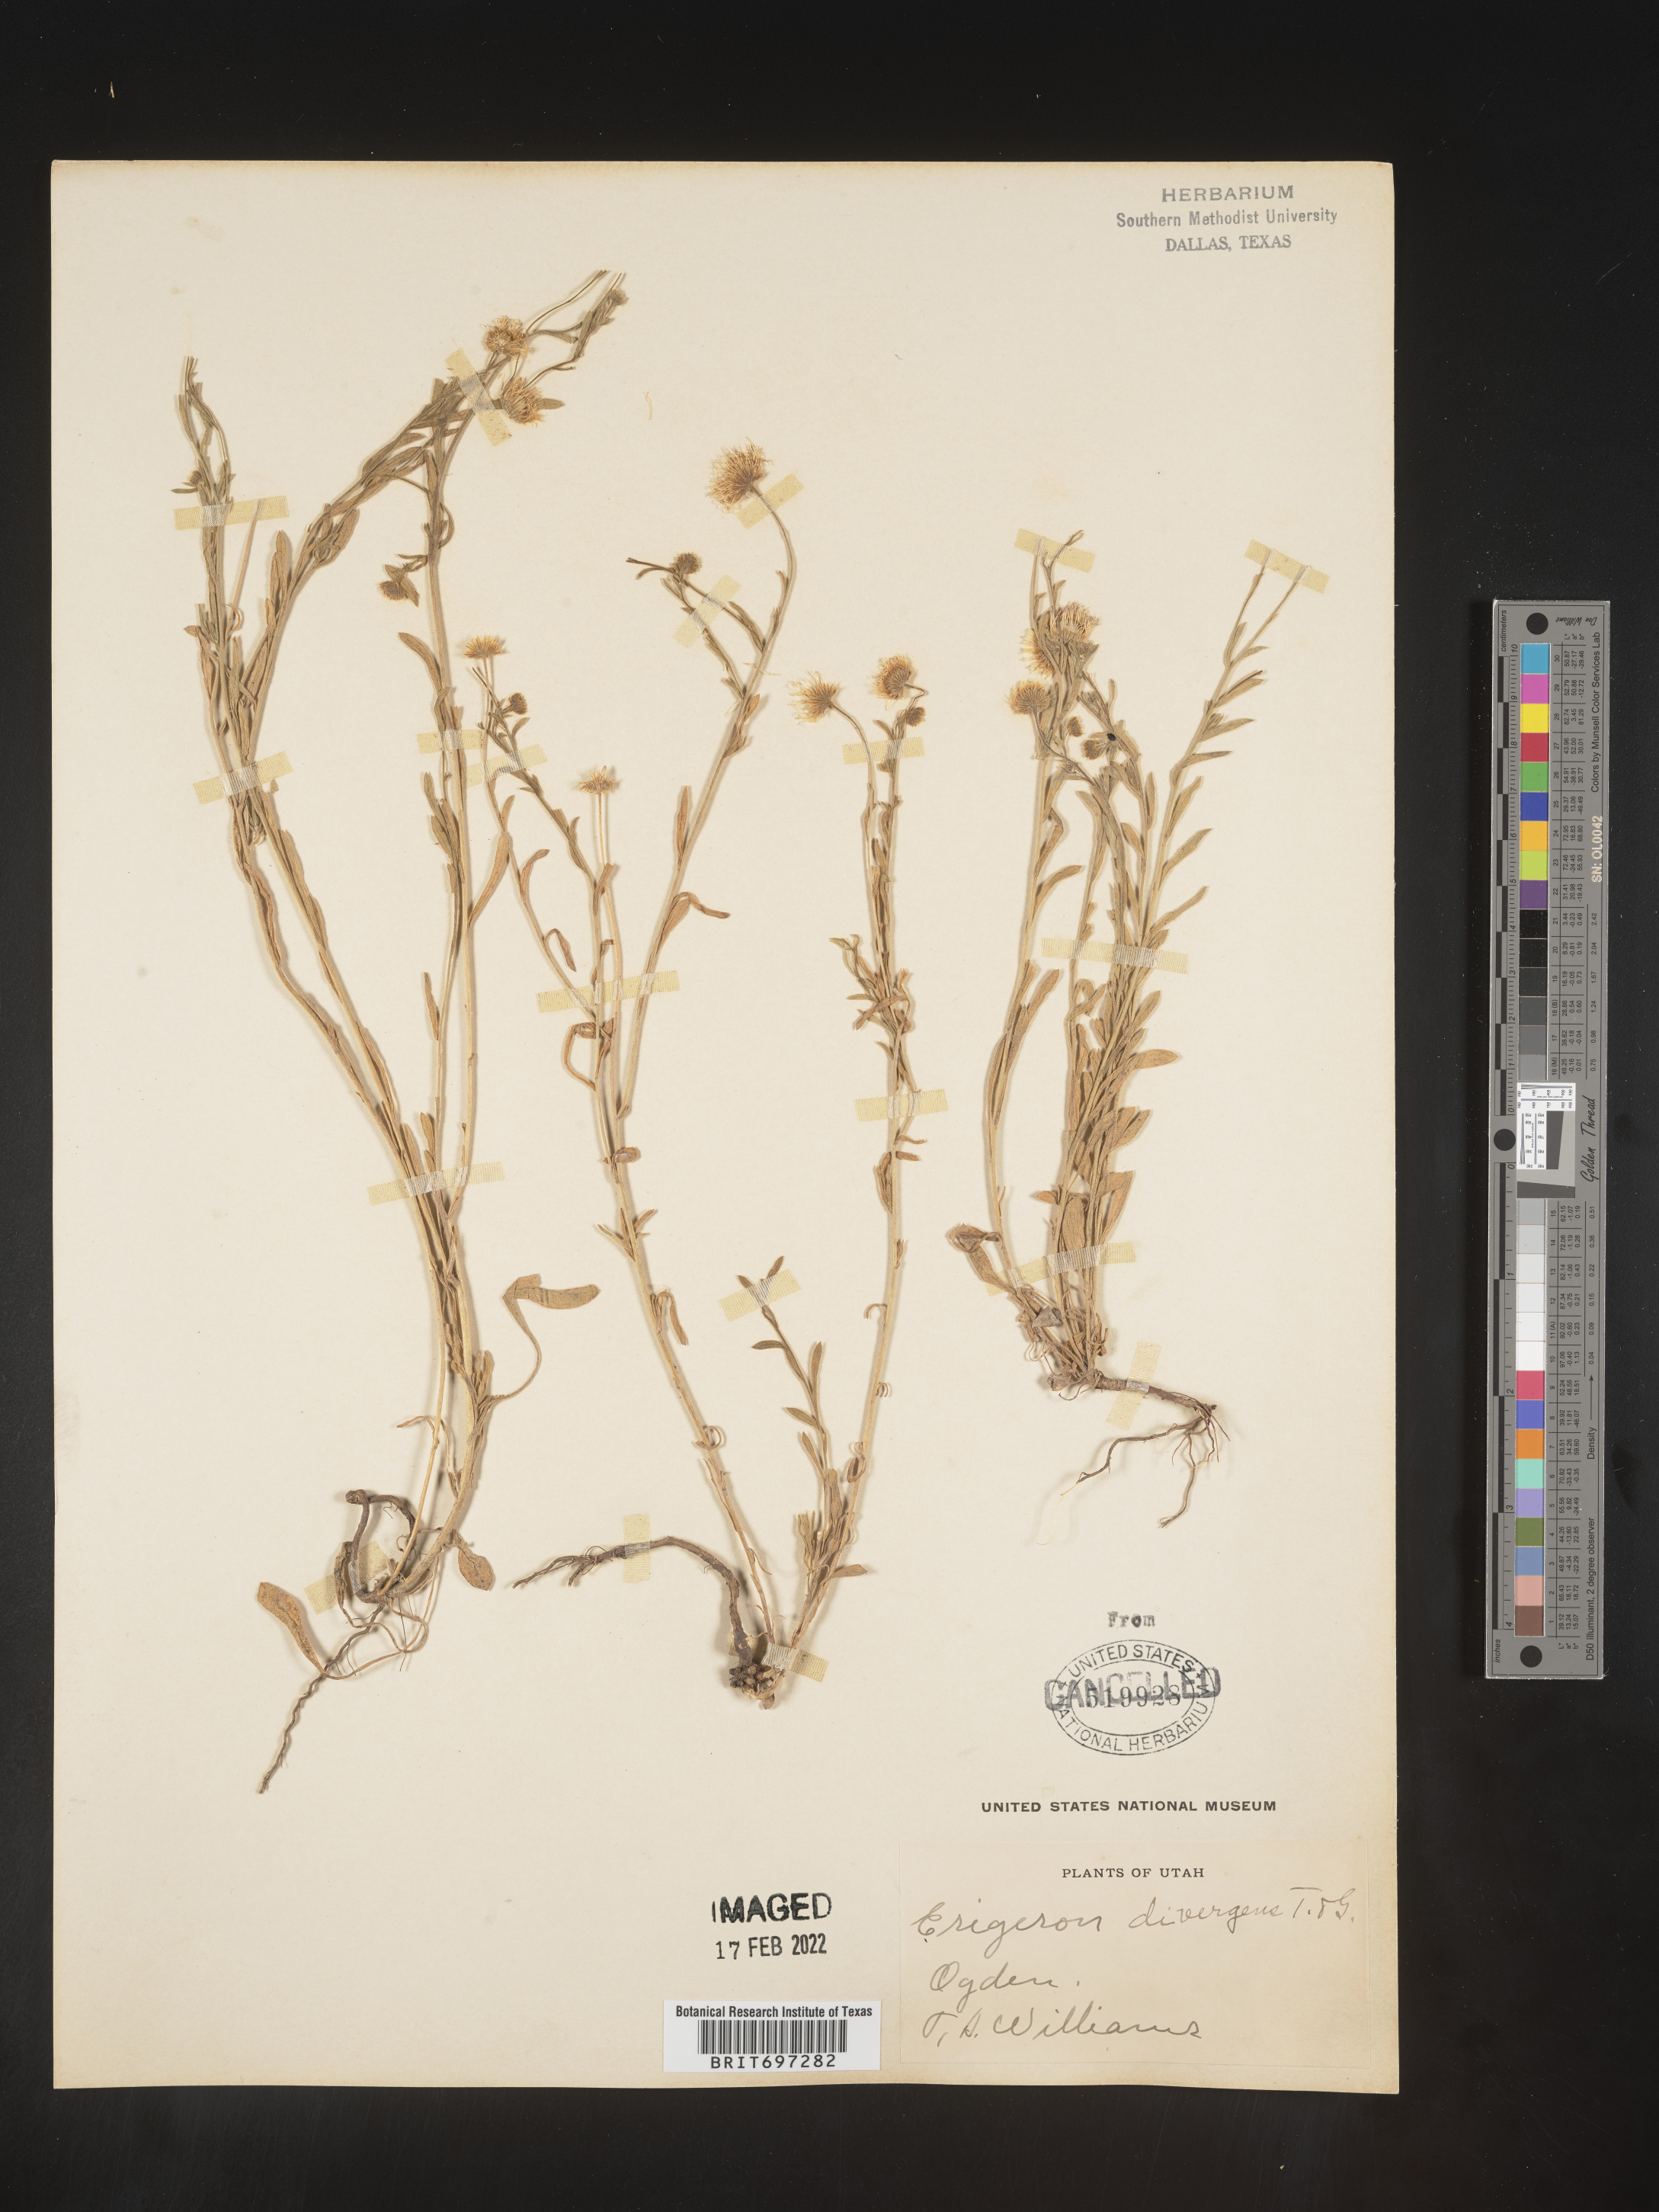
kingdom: Plantae
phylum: Tracheophyta
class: Magnoliopsida
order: Asterales
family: Asteraceae
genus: Erigeron
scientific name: Erigeron divergens
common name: Diffuse fleabane
